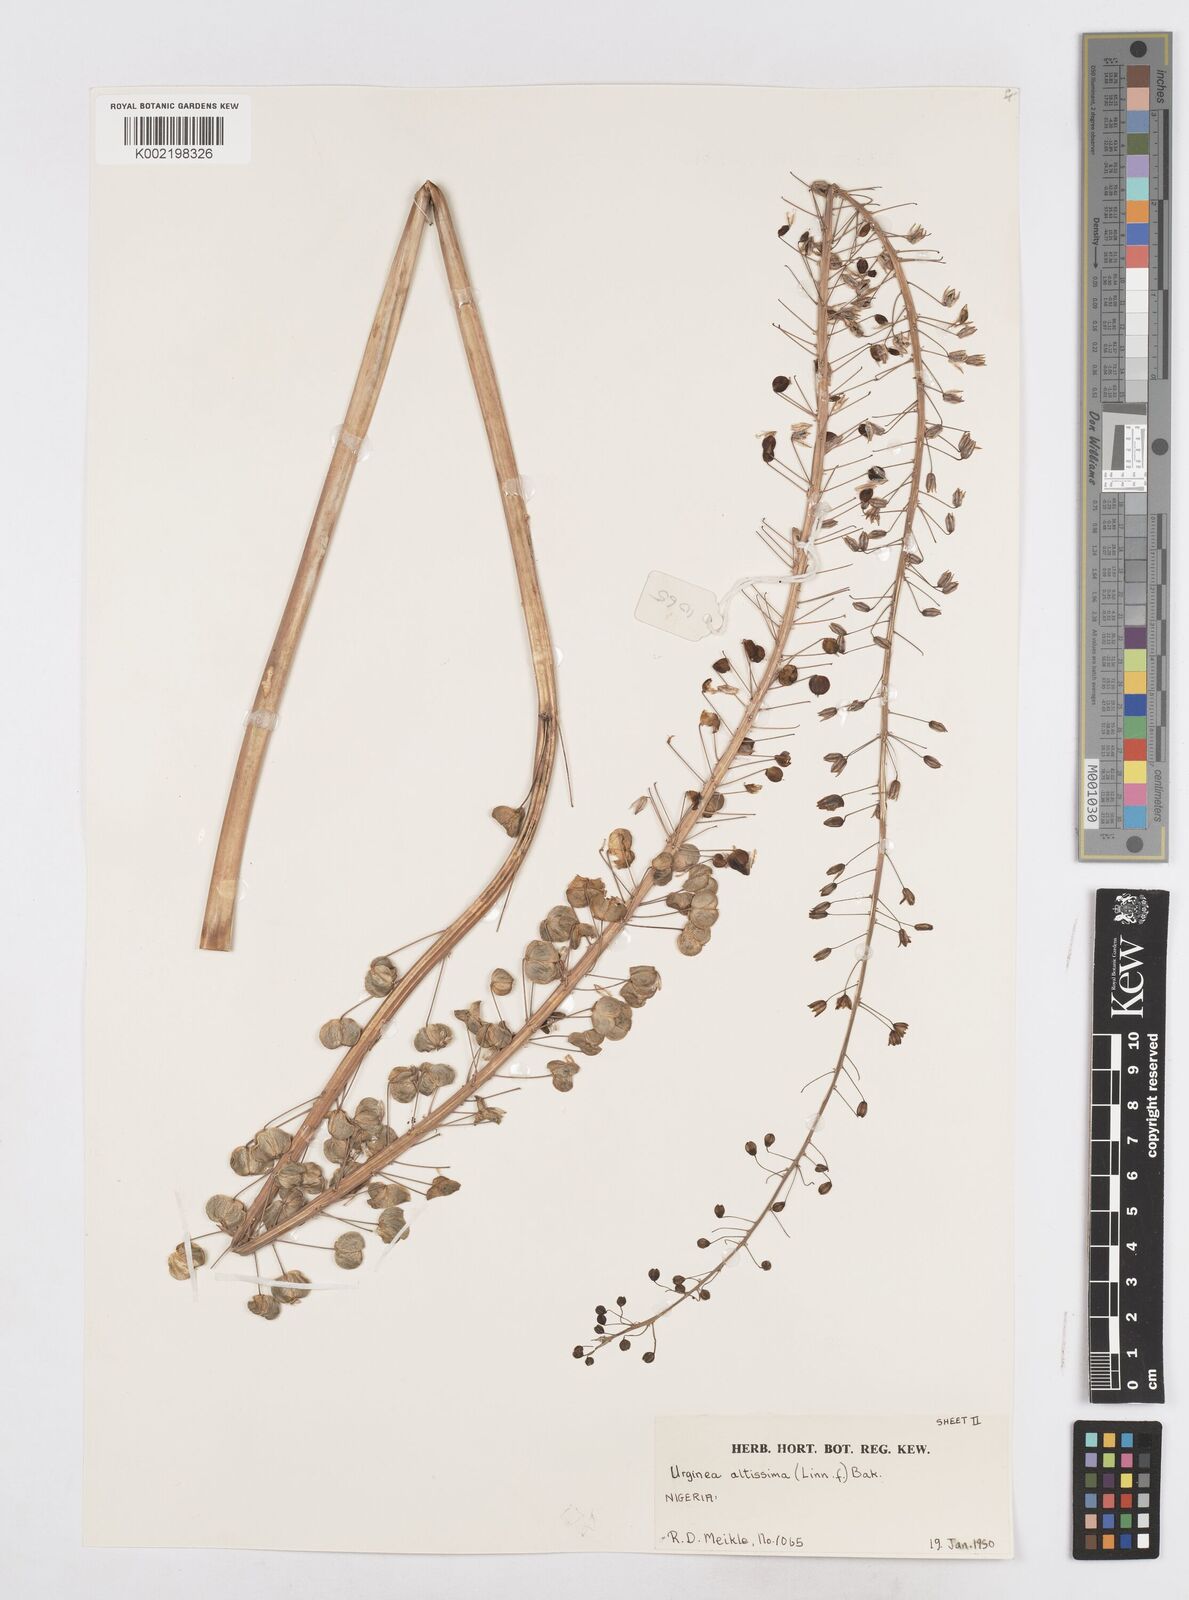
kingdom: Plantae
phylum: Tracheophyta
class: Liliopsida
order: Asparagales
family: Asparagaceae
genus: Drimia
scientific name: Drimia altissima
